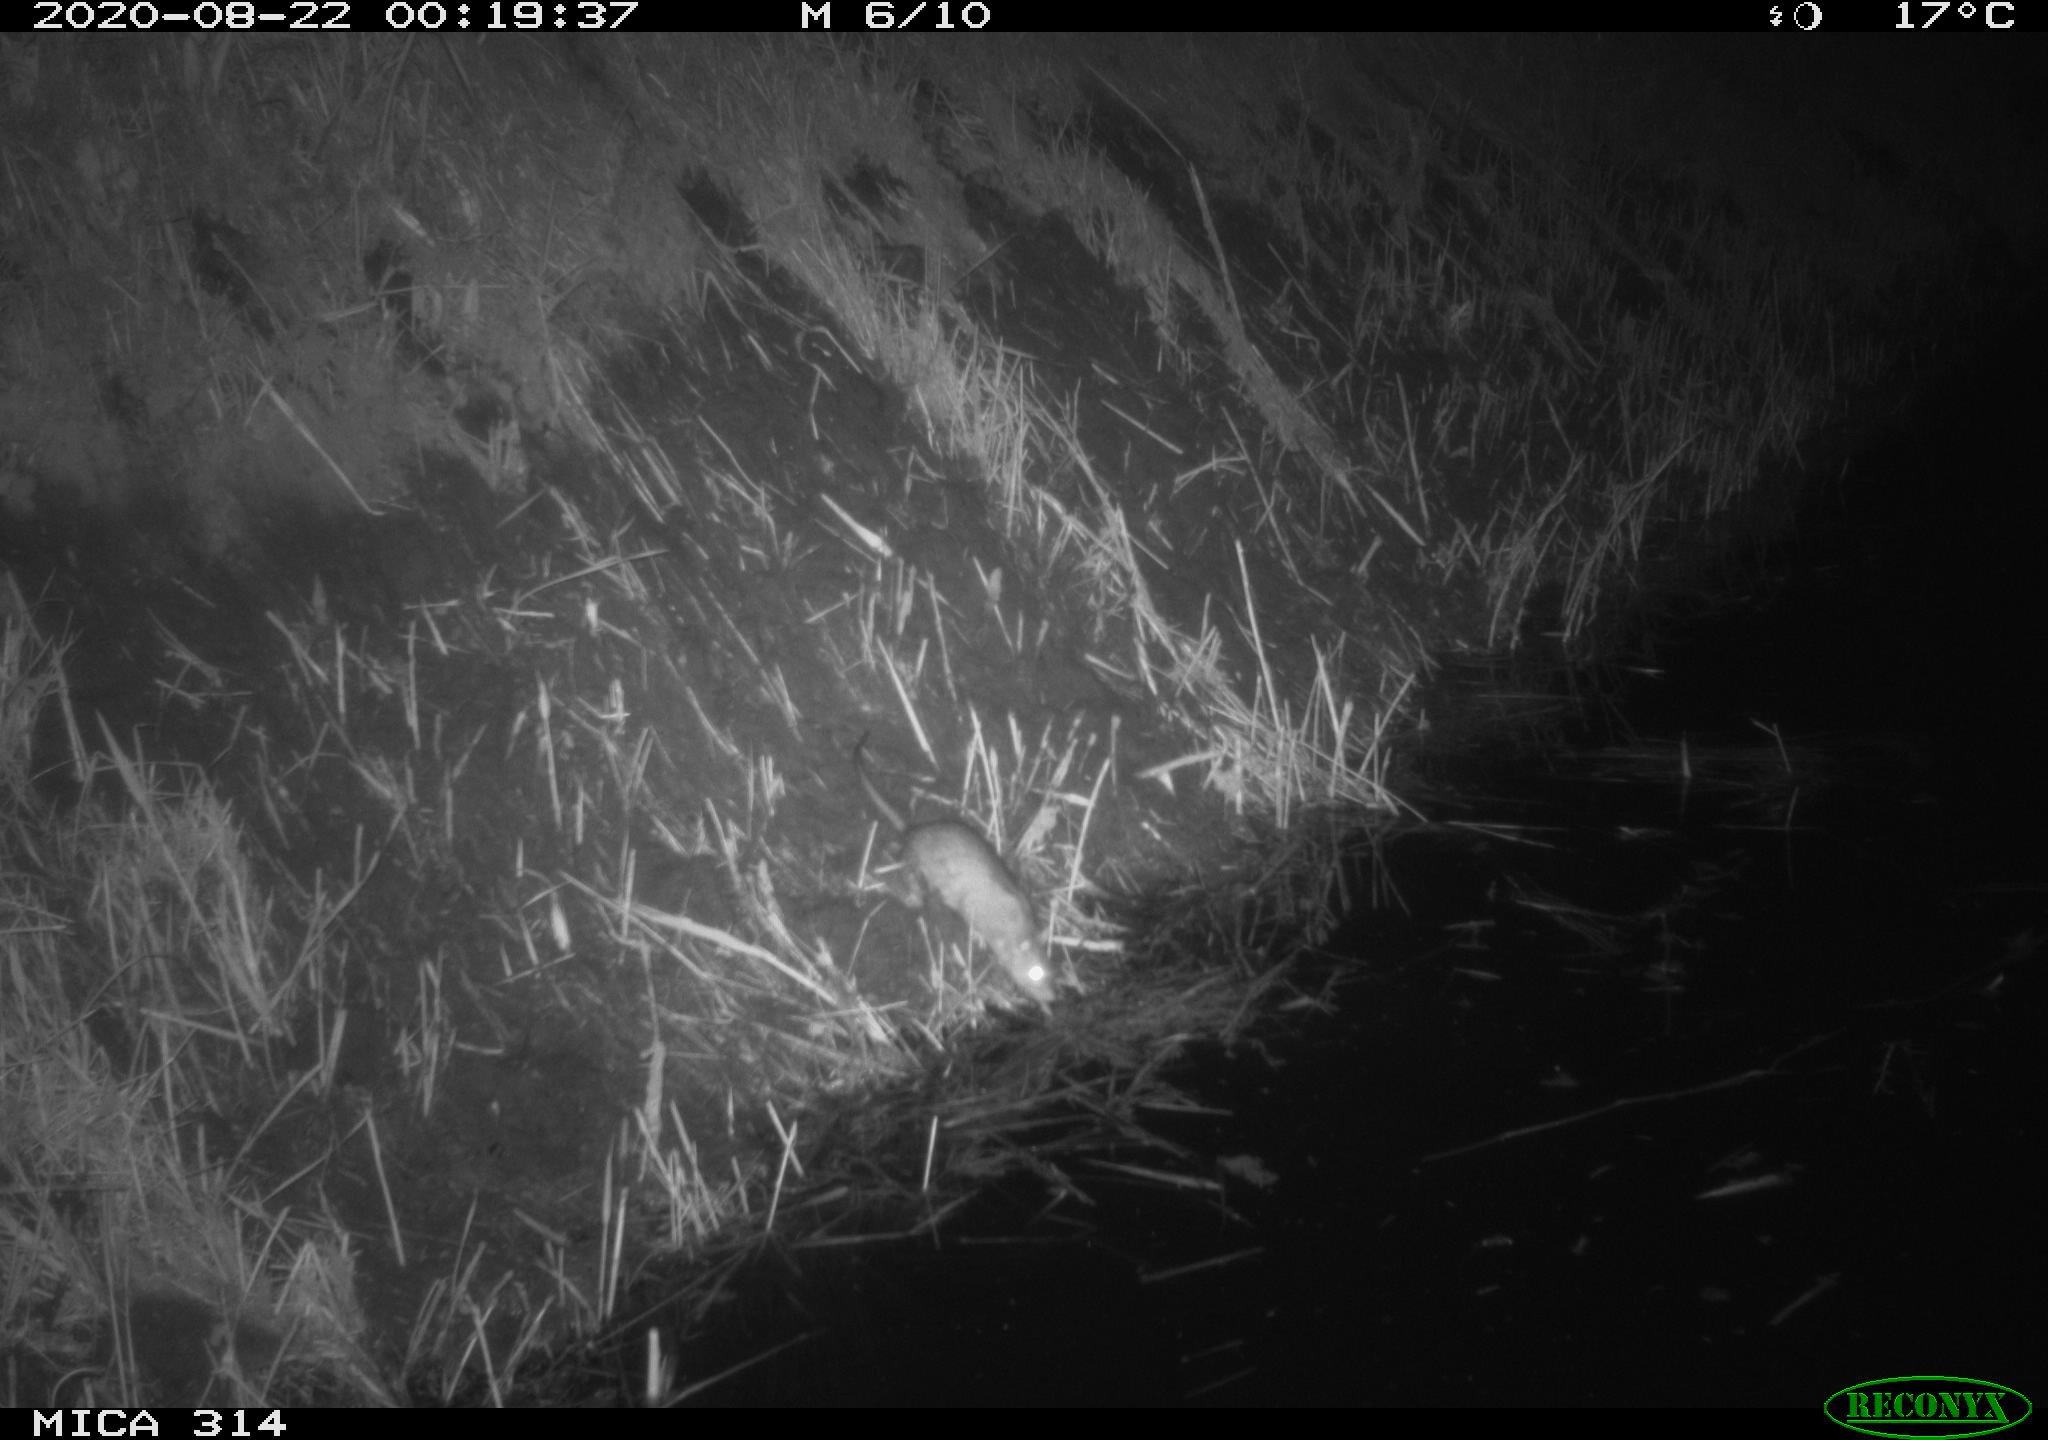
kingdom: Animalia
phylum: Chordata
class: Mammalia
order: Rodentia
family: Muridae
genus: Rattus
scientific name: Rattus norvegicus
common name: Brown rat
